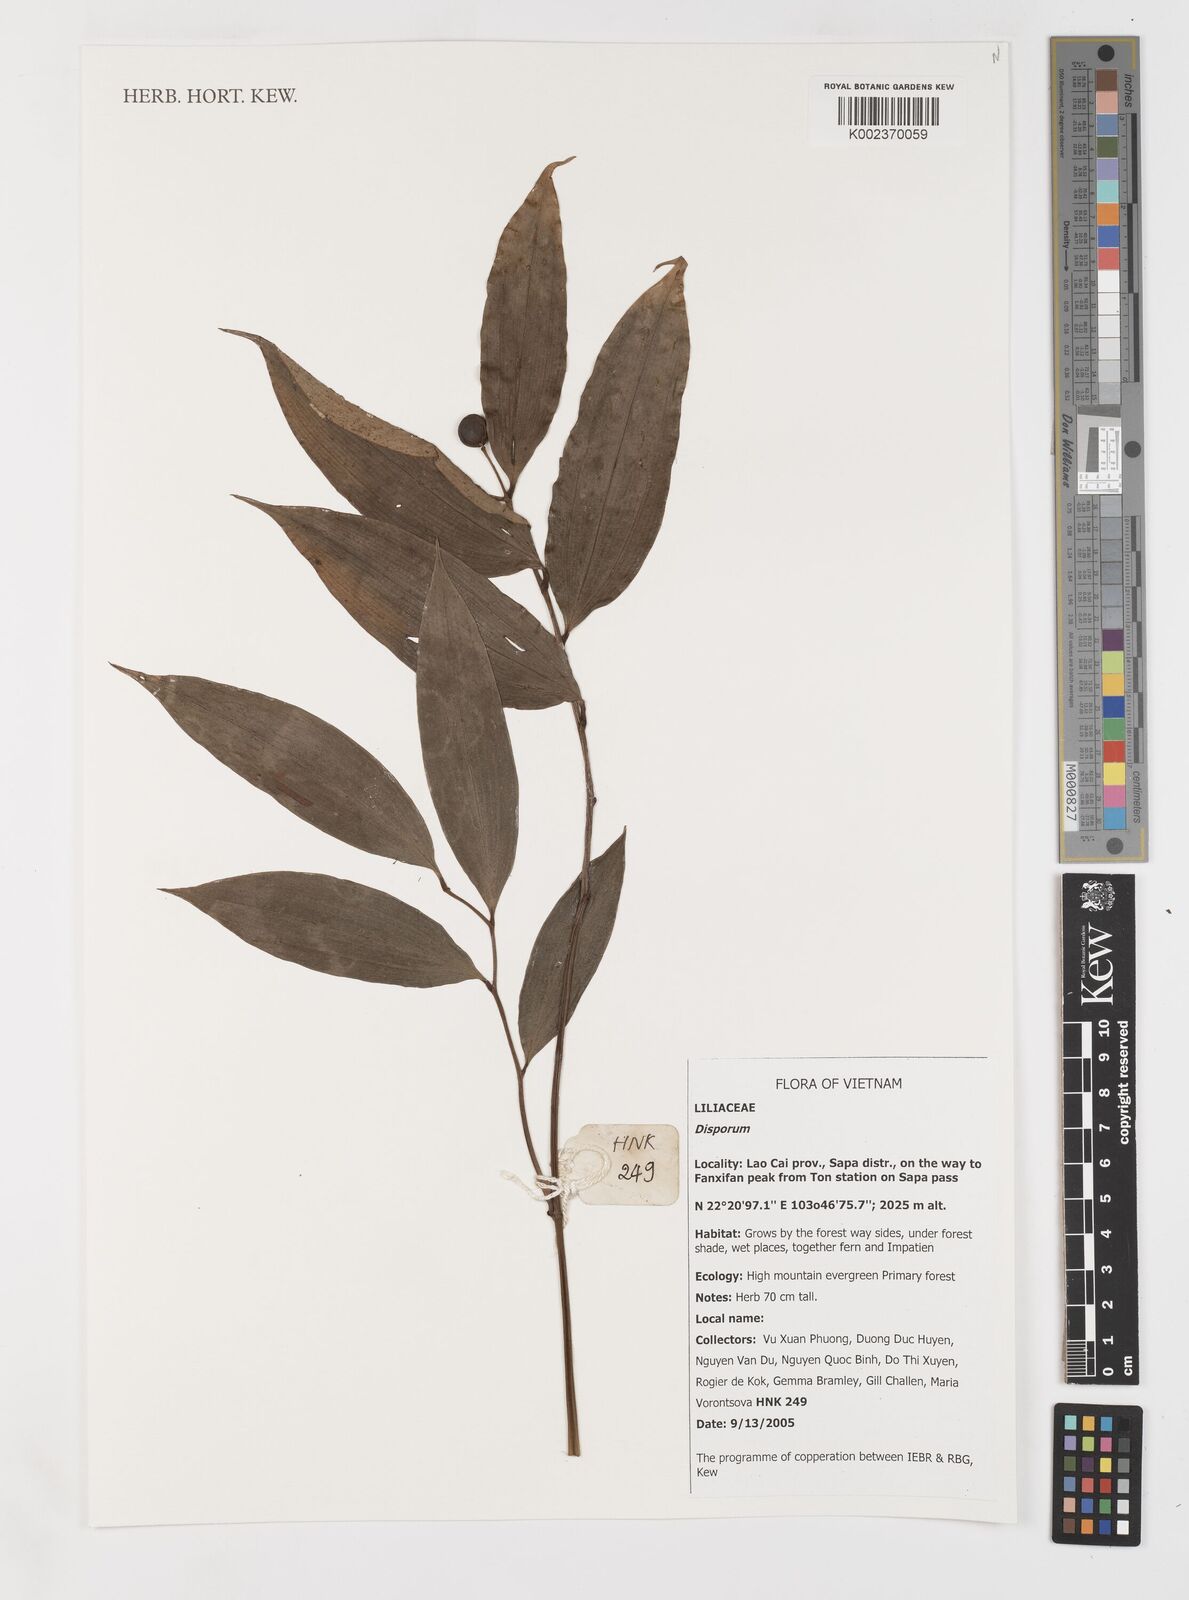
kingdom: Plantae
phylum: Tracheophyta
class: Liliopsida
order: Liliales
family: Colchicaceae
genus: Disporum
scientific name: Disporum
